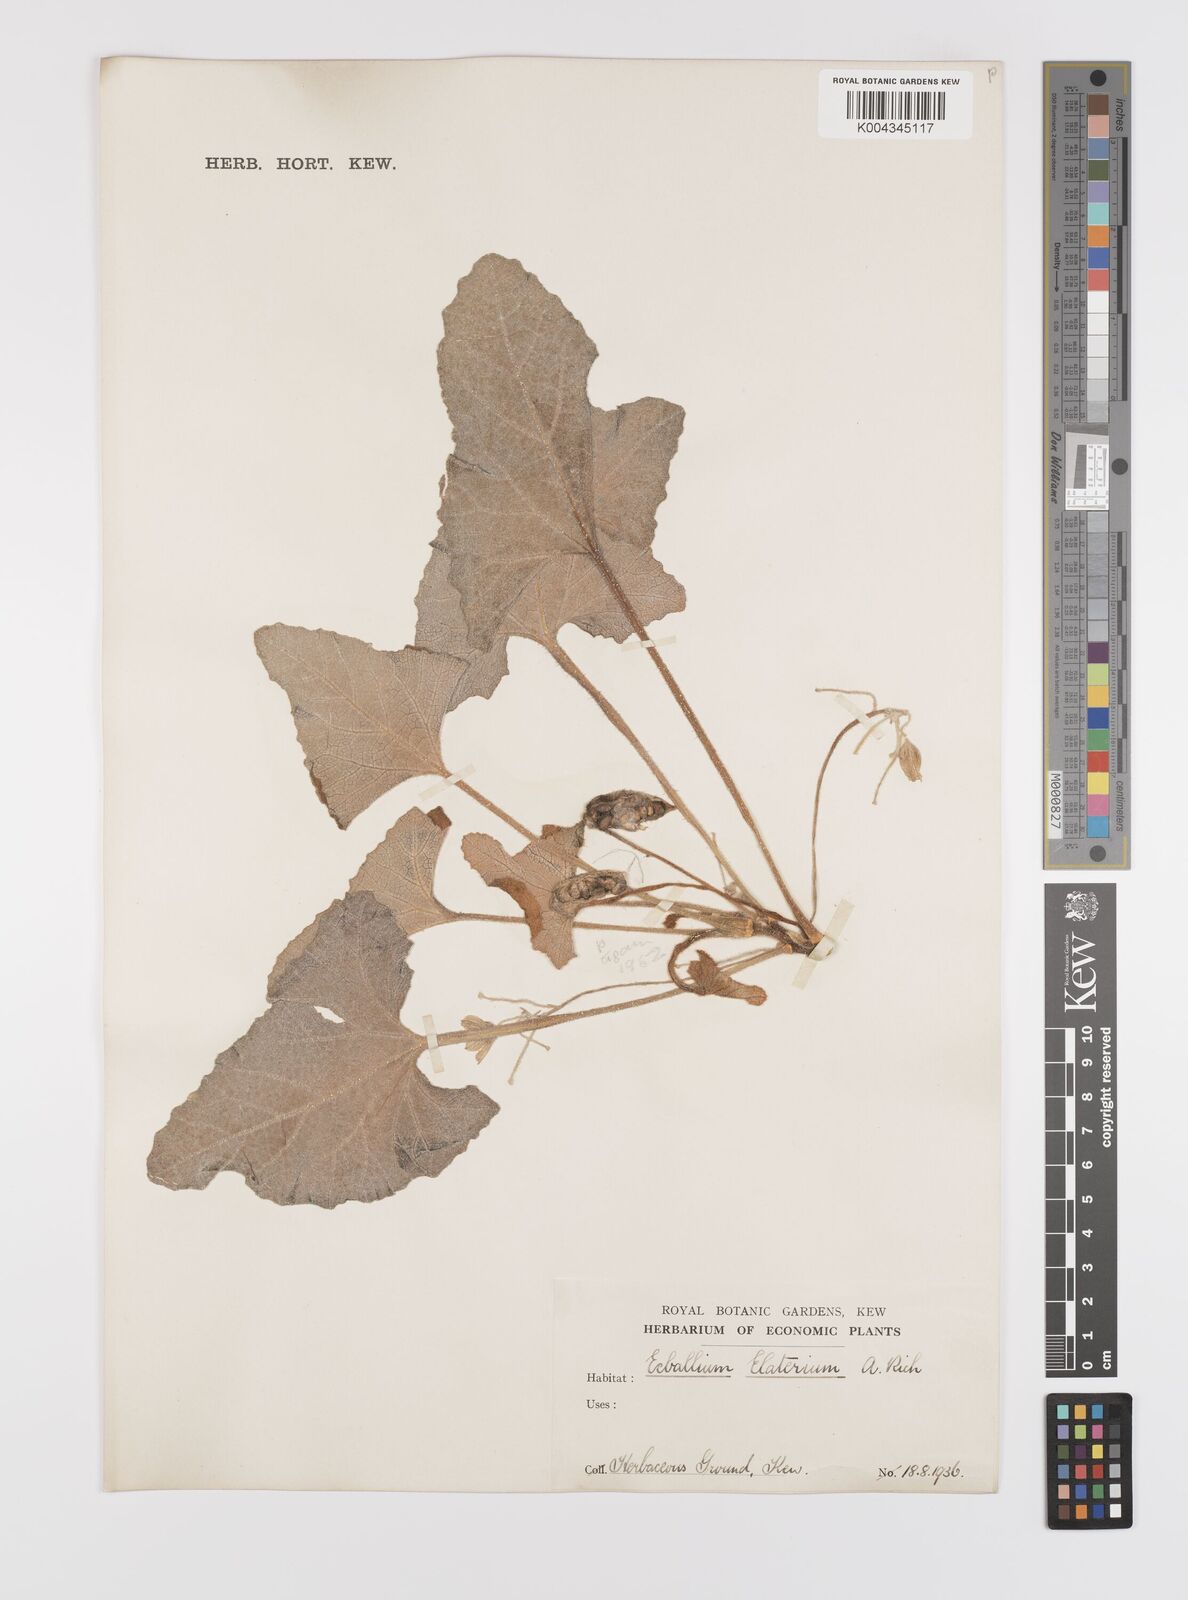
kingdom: Plantae
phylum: Tracheophyta
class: Magnoliopsida
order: Cucurbitales
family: Cucurbitaceae
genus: Ecballium
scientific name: Ecballium elaterium
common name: Squirting cucumber
